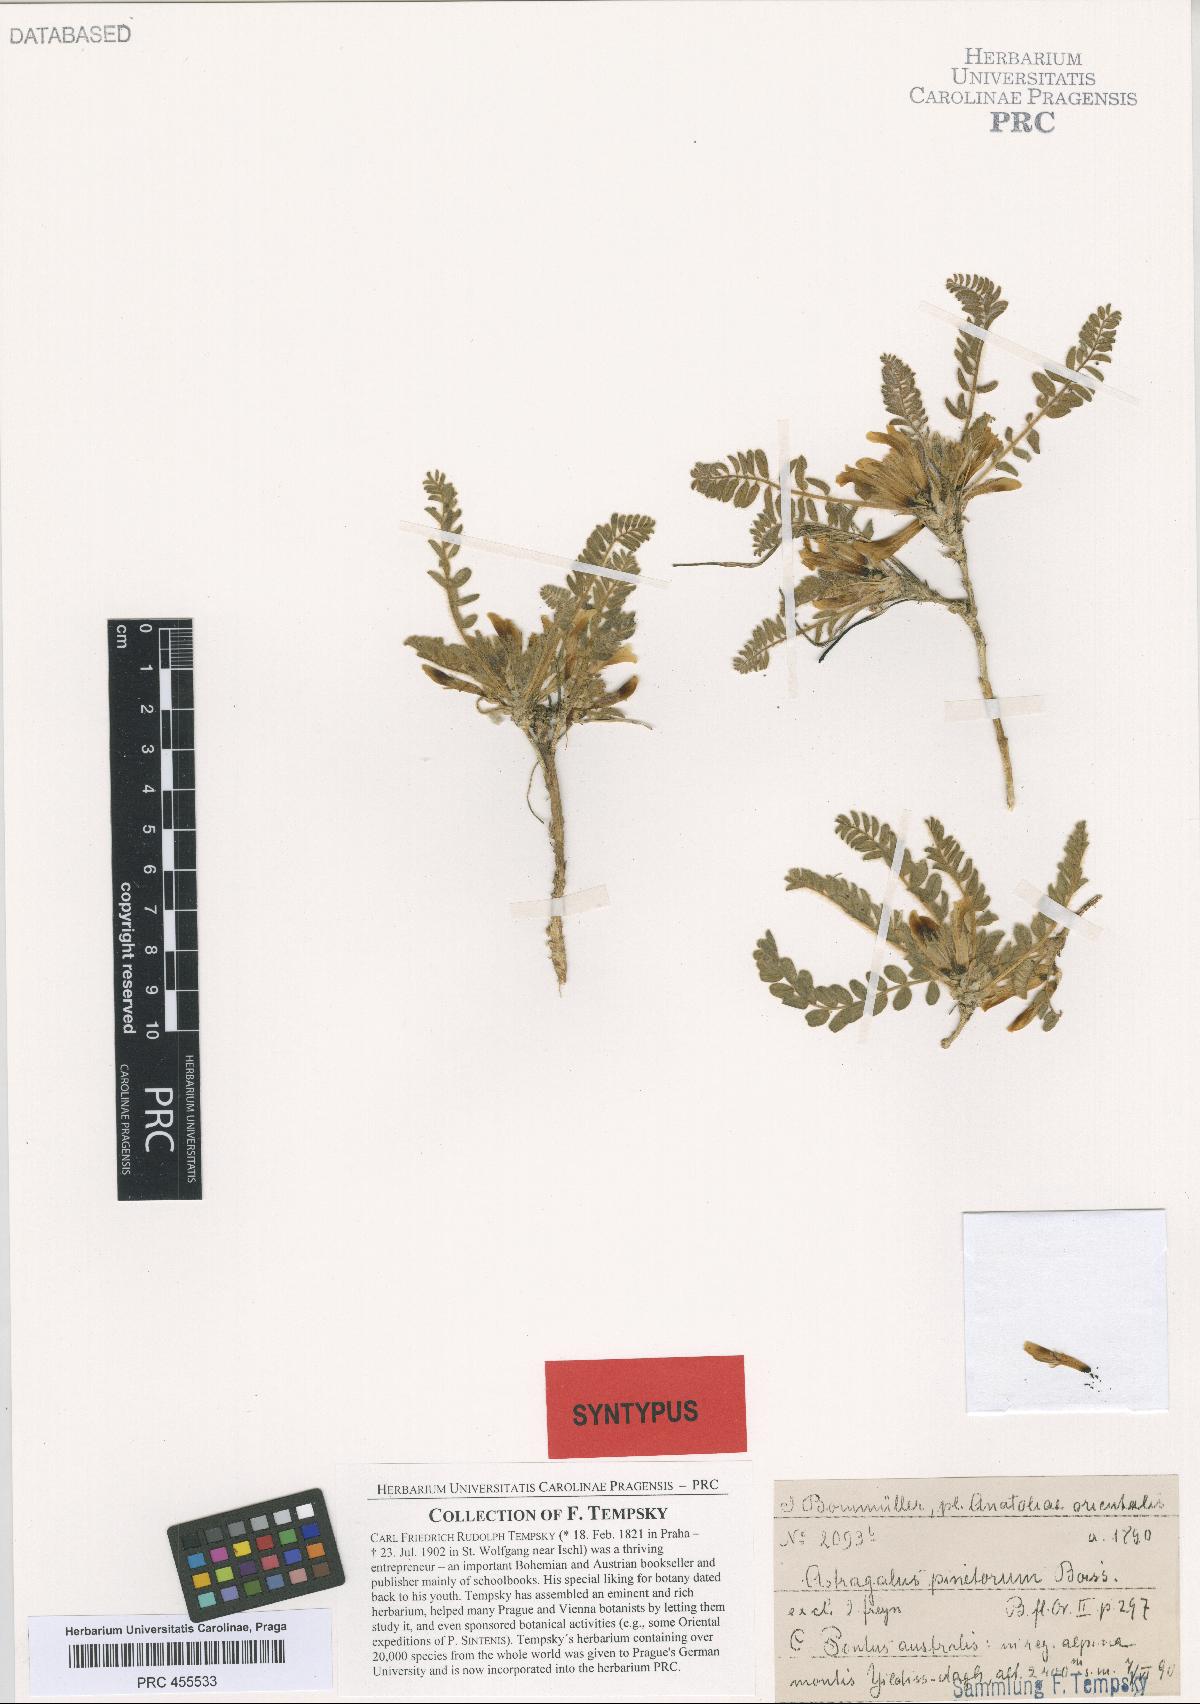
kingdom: Plantae
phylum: Tracheophyta
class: Magnoliopsida
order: Fabales
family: Fabaceae
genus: Astragalus
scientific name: Astragalus pinetorum
